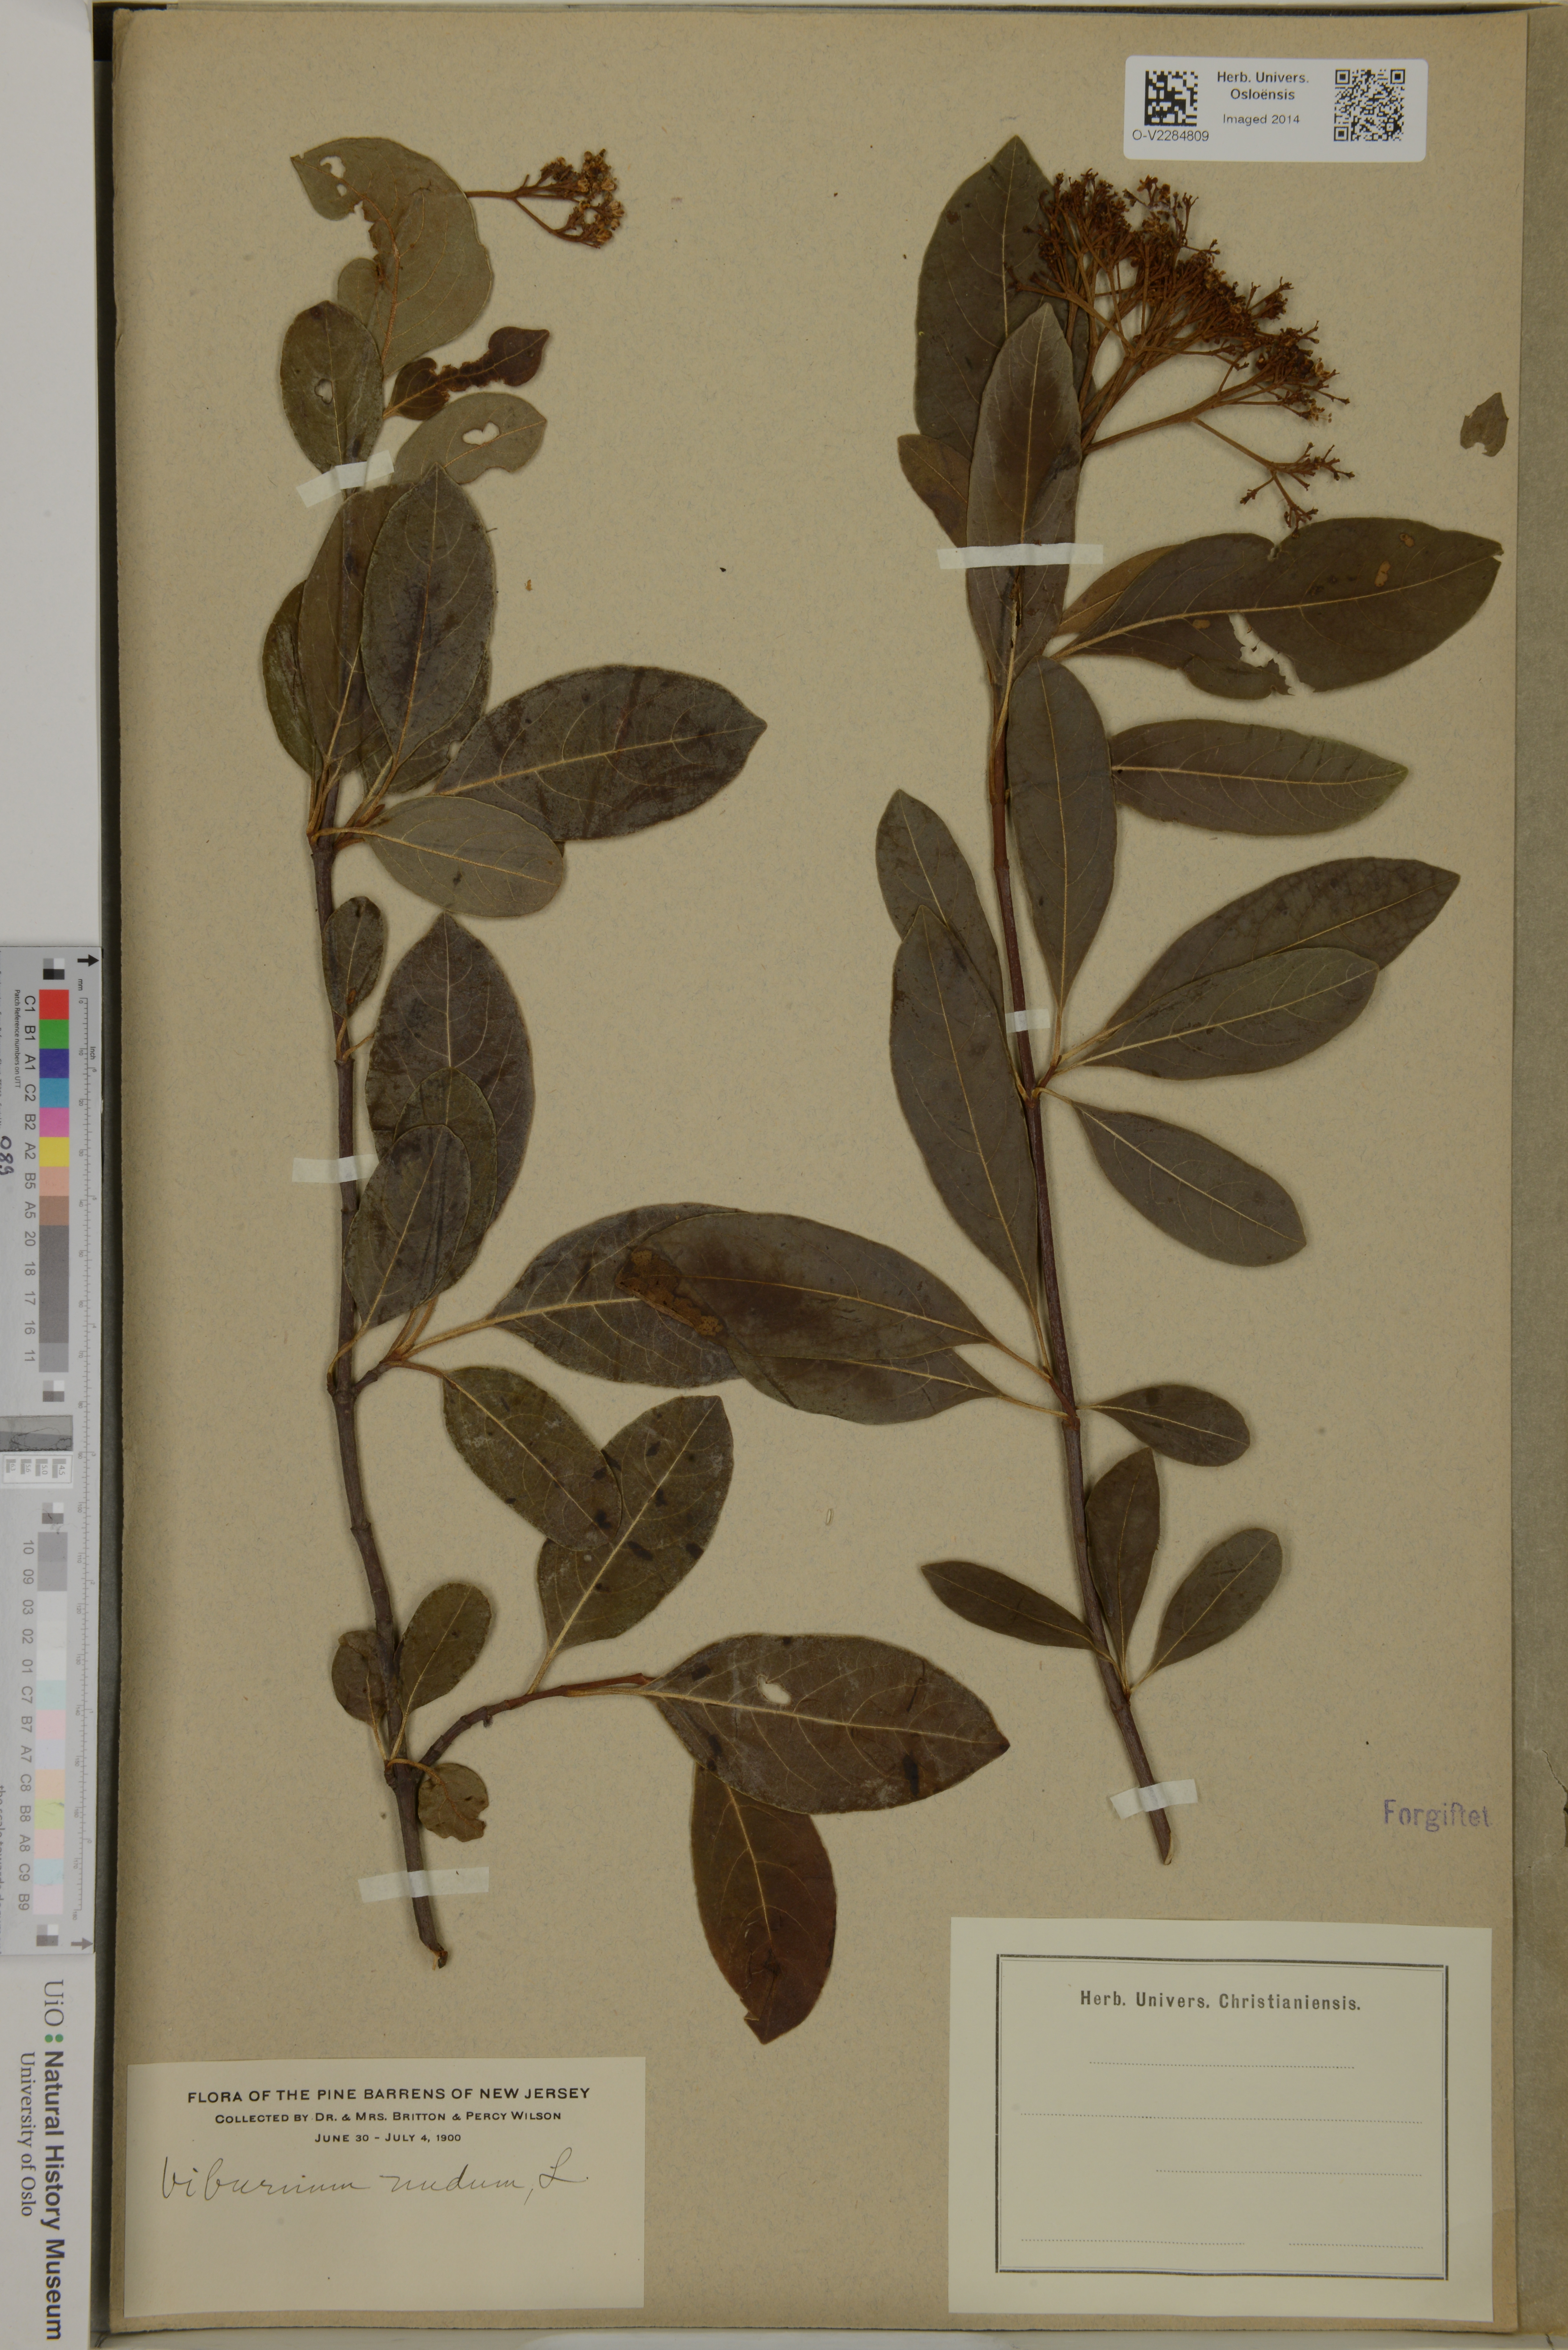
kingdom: Plantae
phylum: Tracheophyta
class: Magnoliopsida
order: Dipsacales
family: Viburnaceae
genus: Viburnum
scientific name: Viburnum nudum
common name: Possum haw
